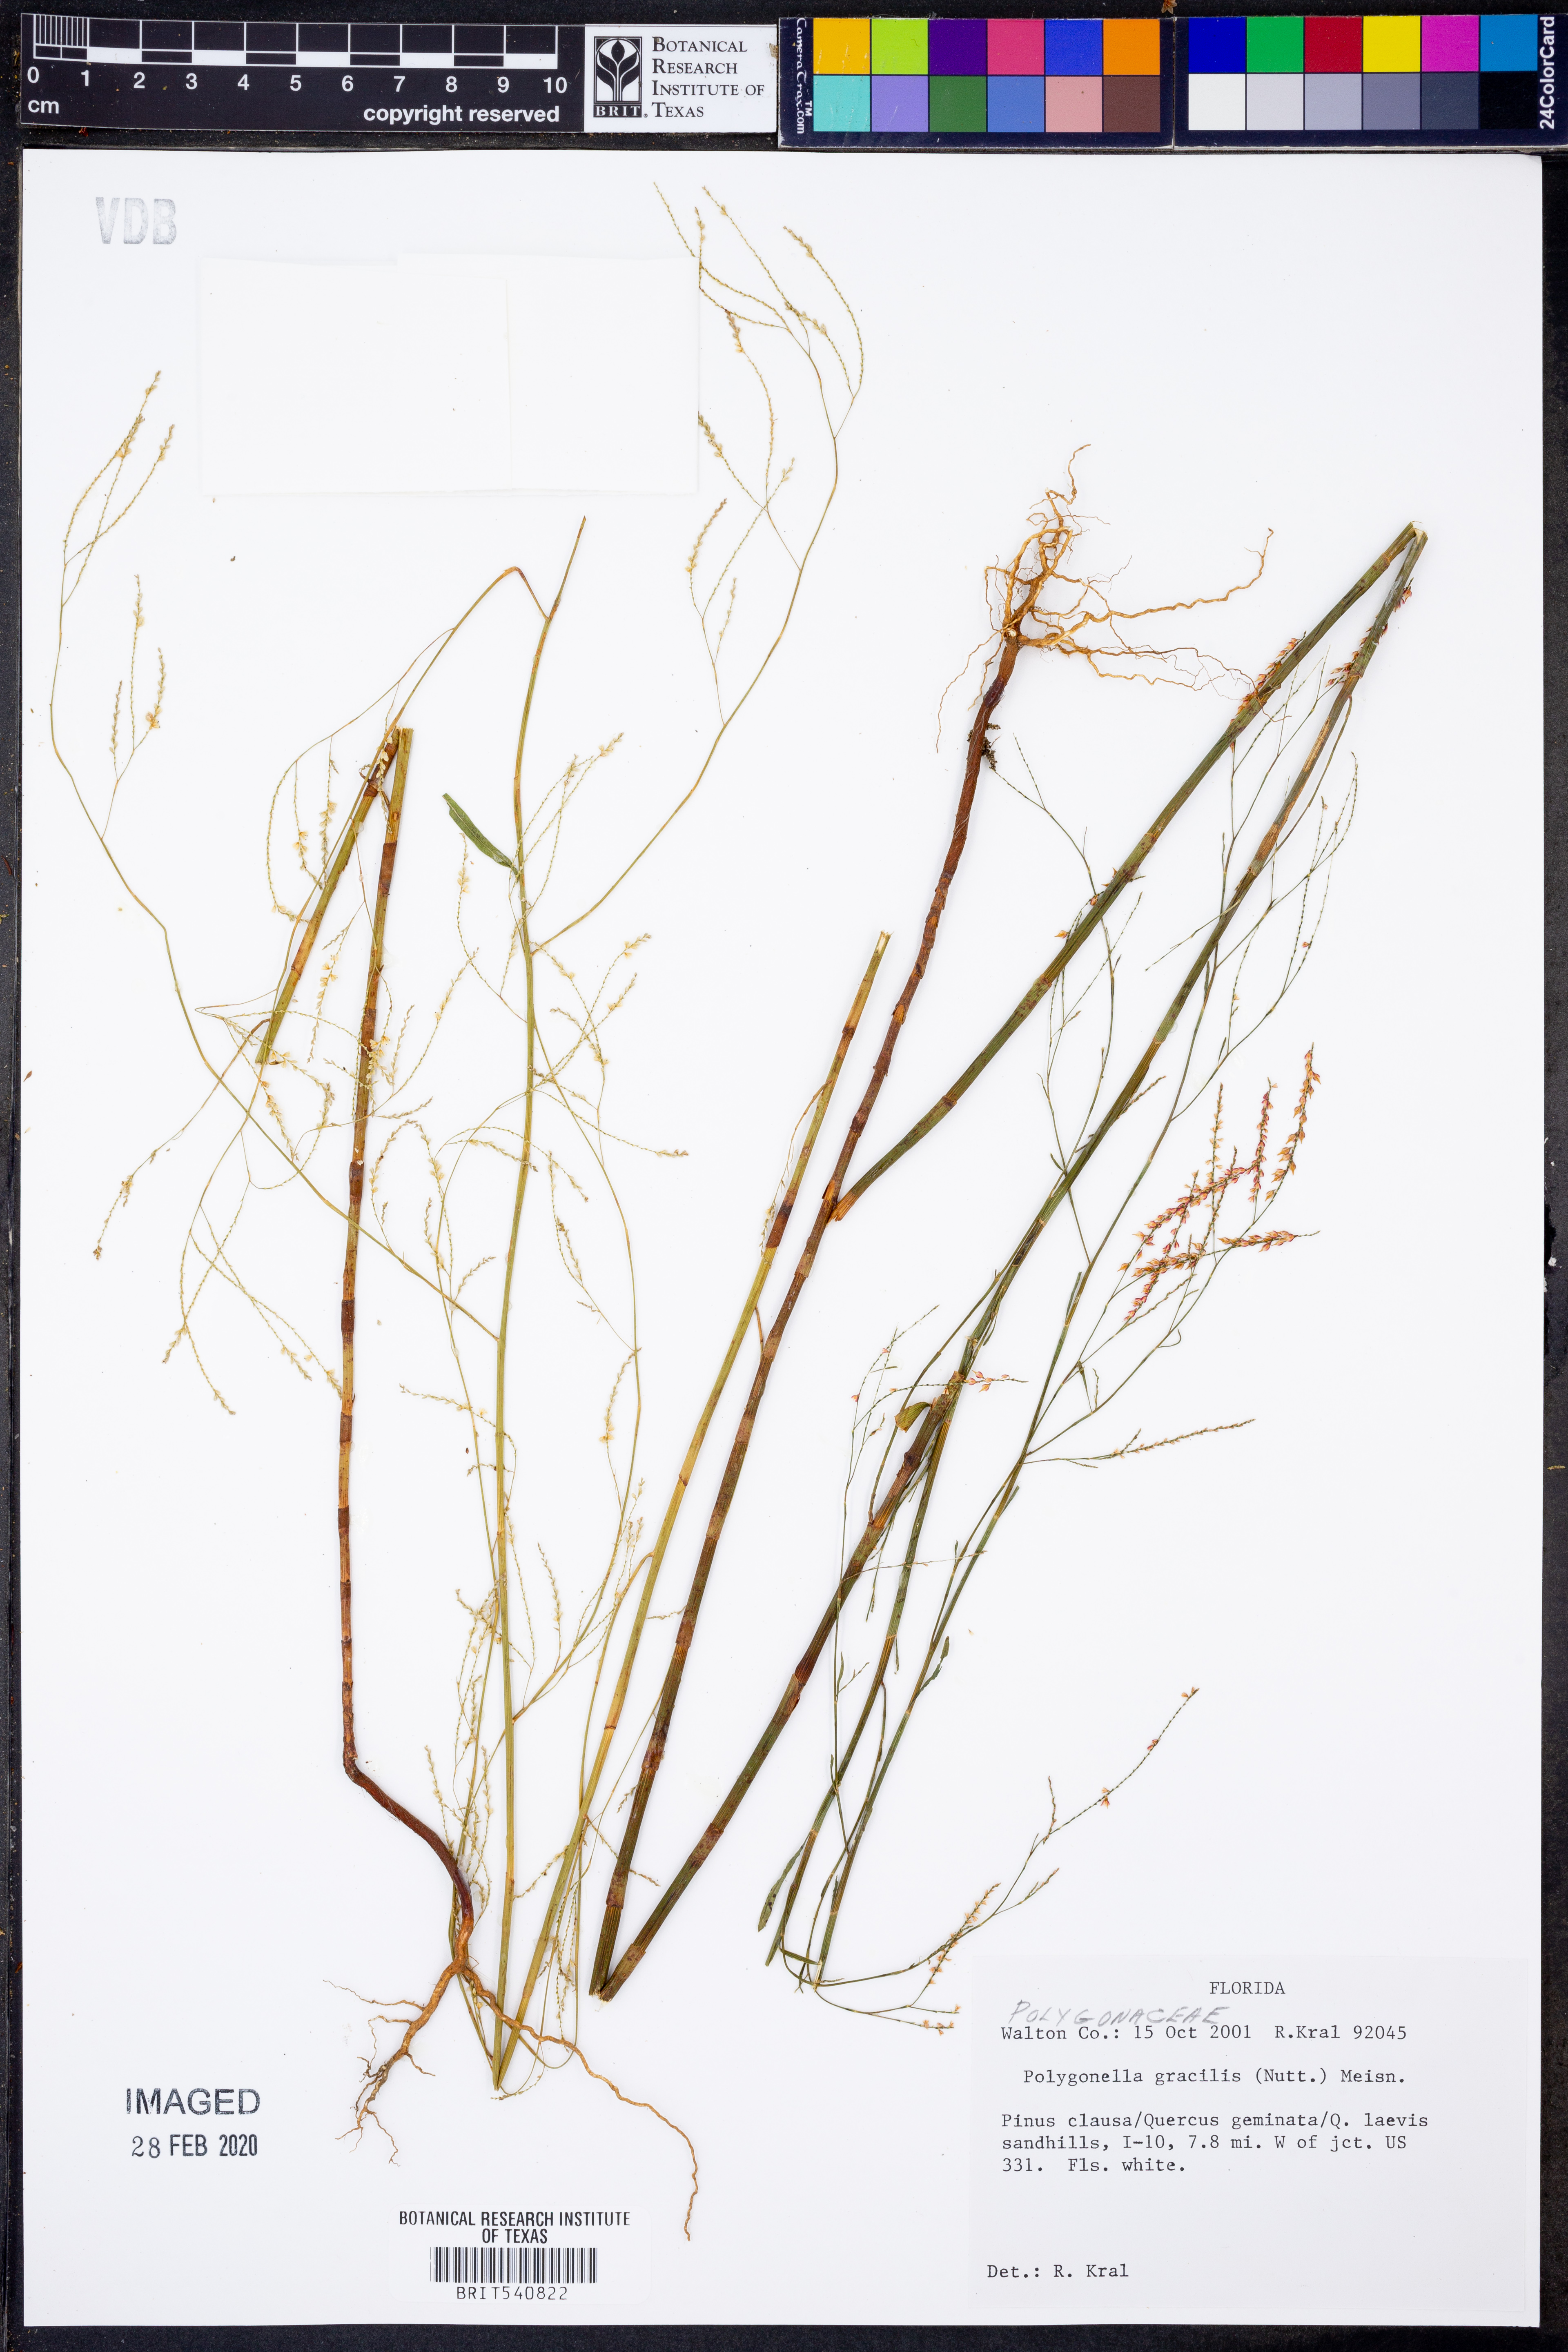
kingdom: Plantae
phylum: Tracheophyta
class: Magnoliopsida
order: Caryophyllales
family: Polygonaceae
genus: Polygonella
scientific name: Polygonella gracilis
